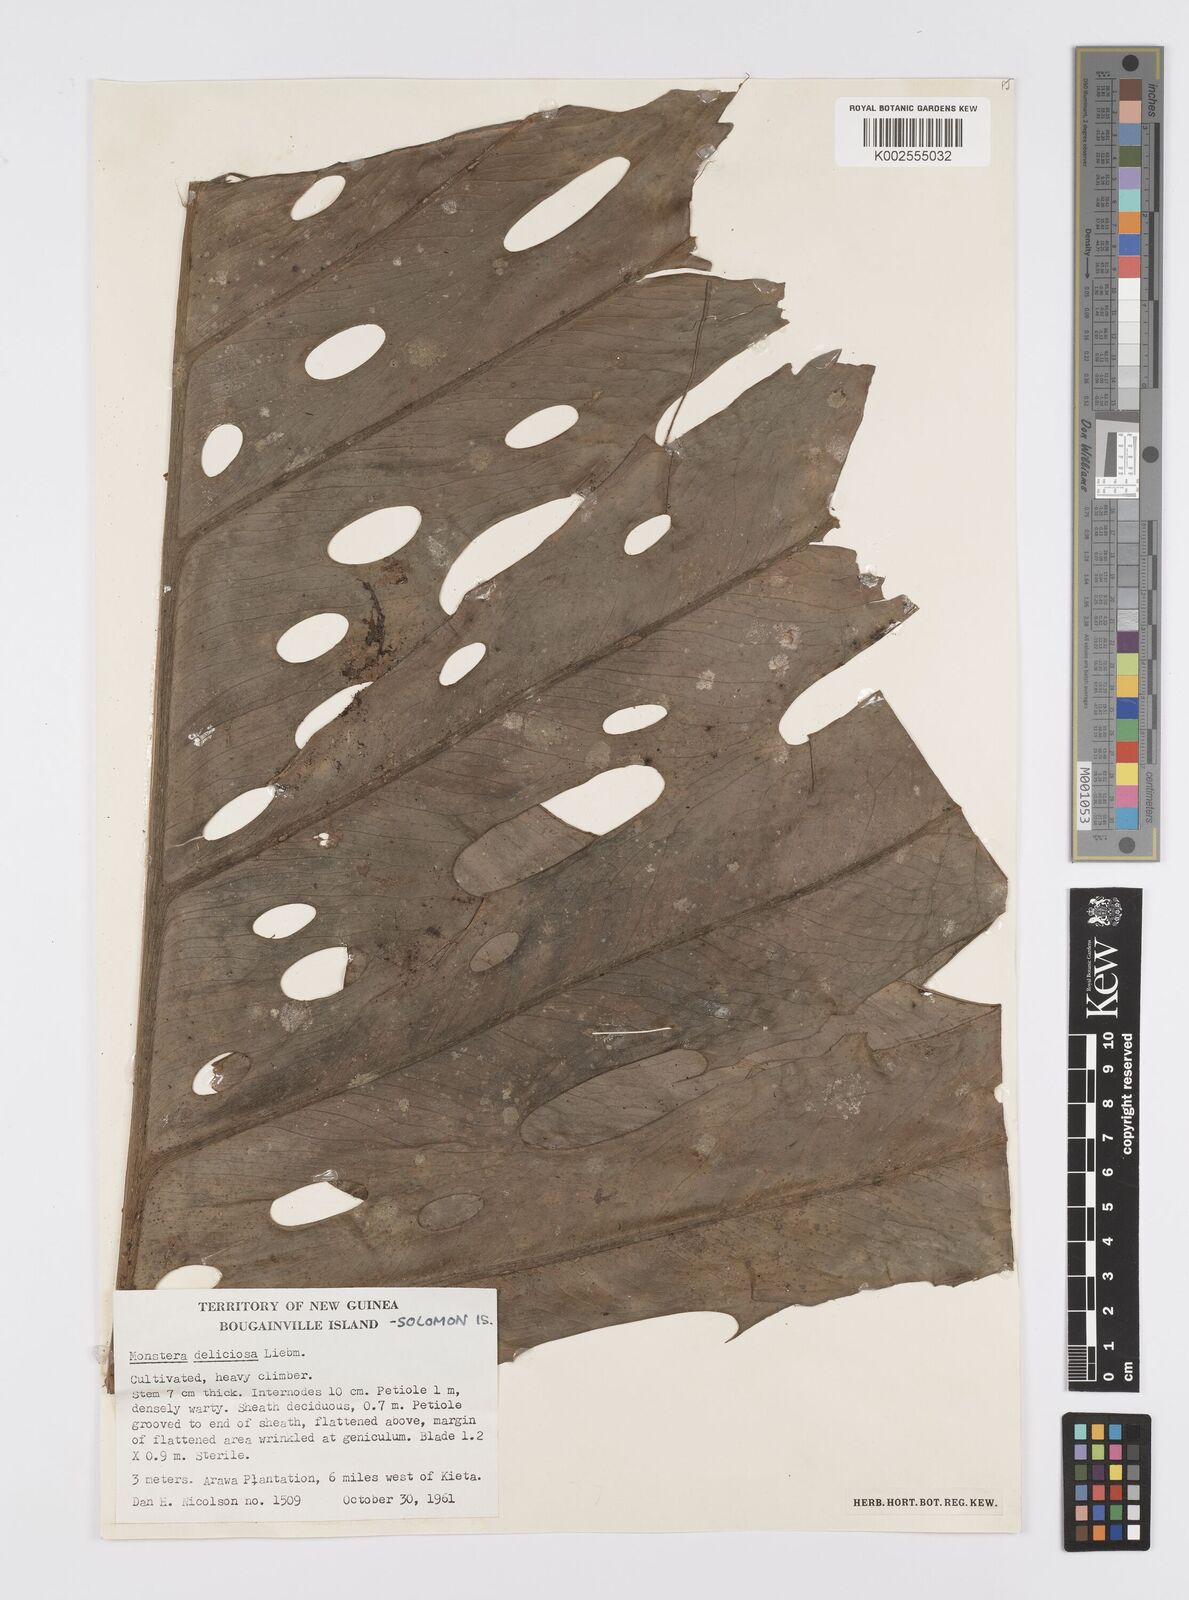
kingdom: Plantae
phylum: Tracheophyta
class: Liliopsida
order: Alismatales
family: Araceae
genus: Monstera
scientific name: Monstera deliciosa
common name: Cut-leaf-philodendron
